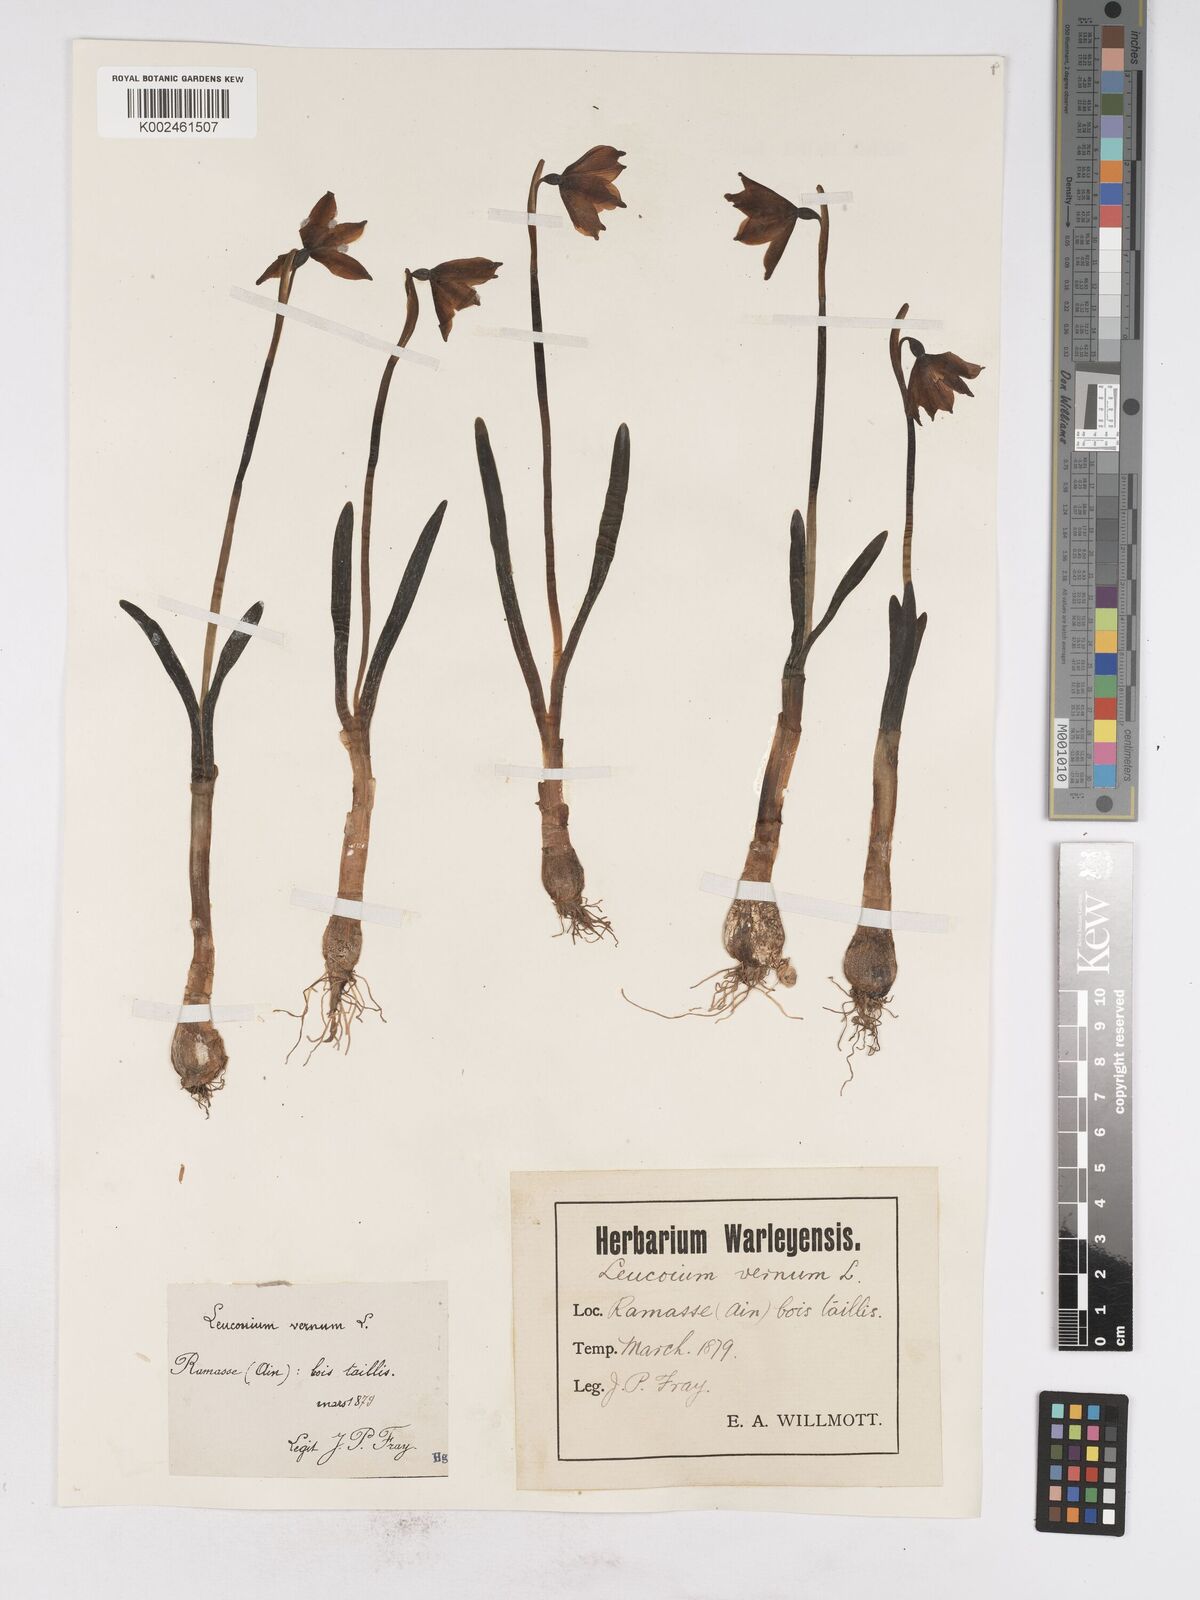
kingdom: Plantae
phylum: Tracheophyta
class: Liliopsida
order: Asparagales
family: Amaryllidaceae
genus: Leucojum
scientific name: Leucojum vernum
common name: Spring snowflake
